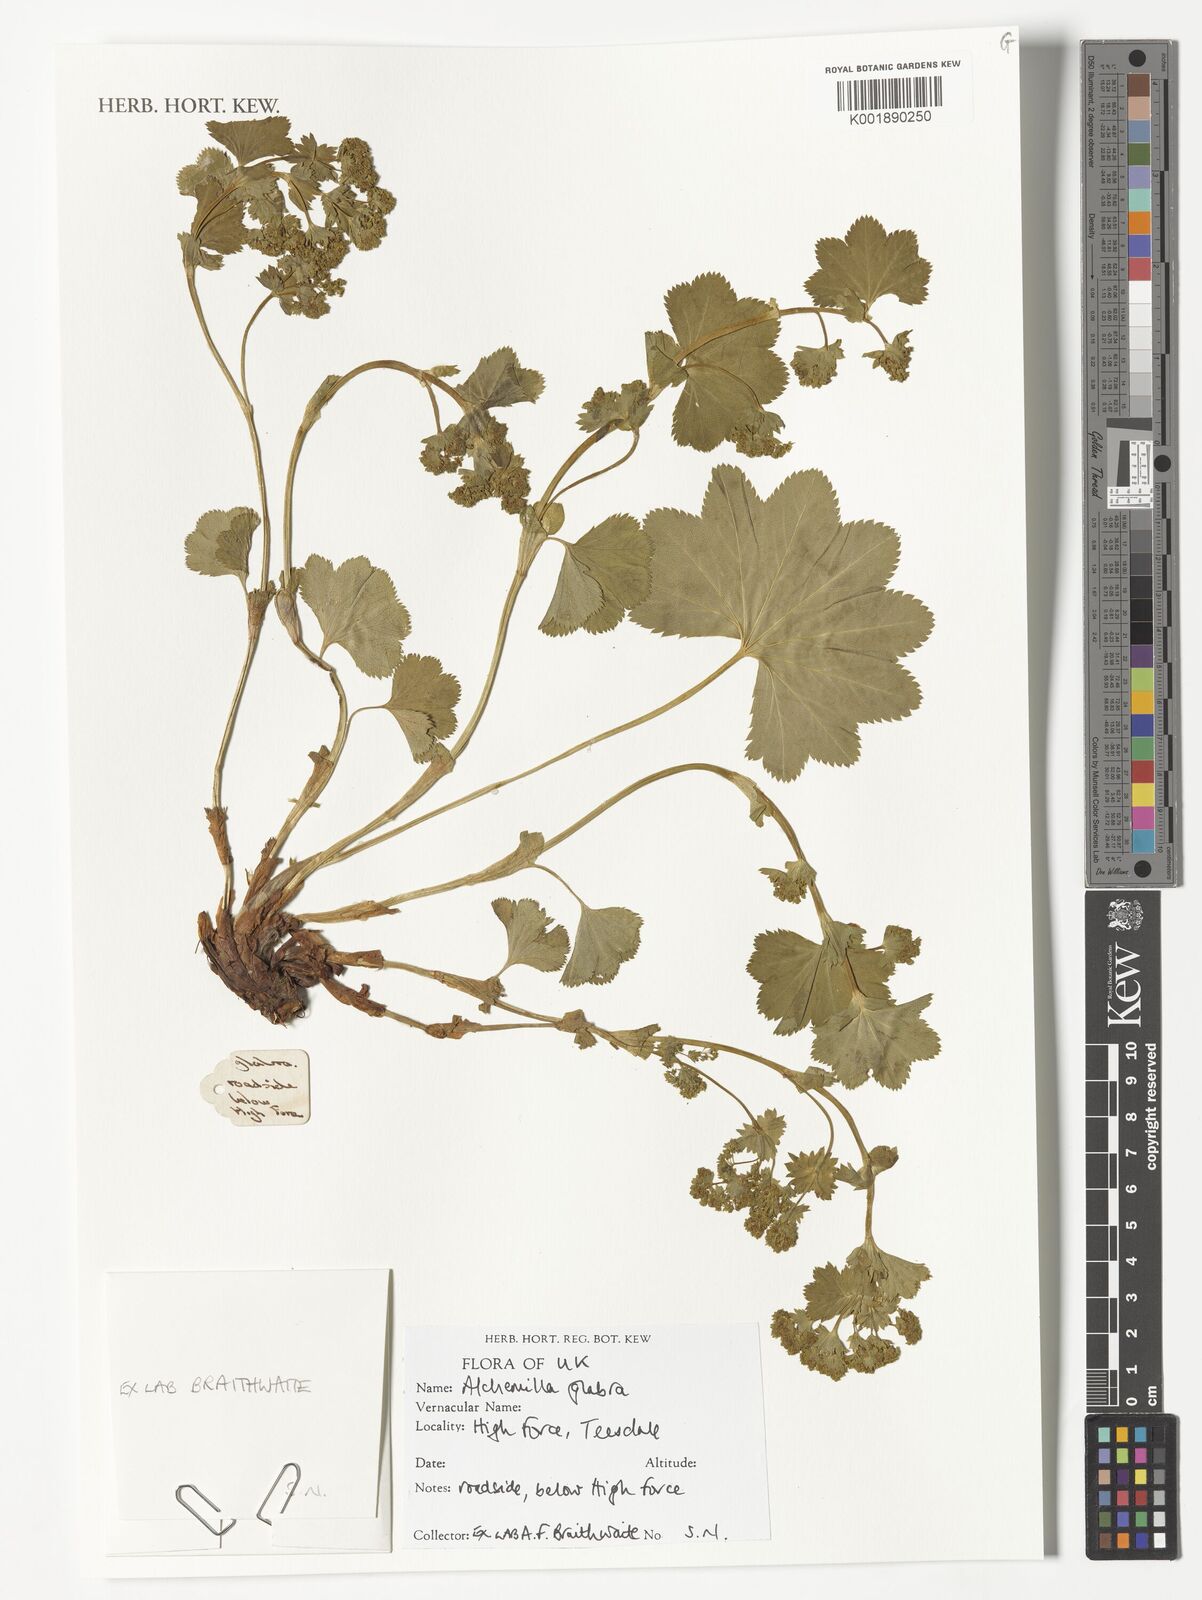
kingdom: Plantae
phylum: Tracheophyta
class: Magnoliopsida
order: Rosales
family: Rosaceae
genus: Alchemilla
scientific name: Alchemilla glabra
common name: Smooth lady's-mantle
